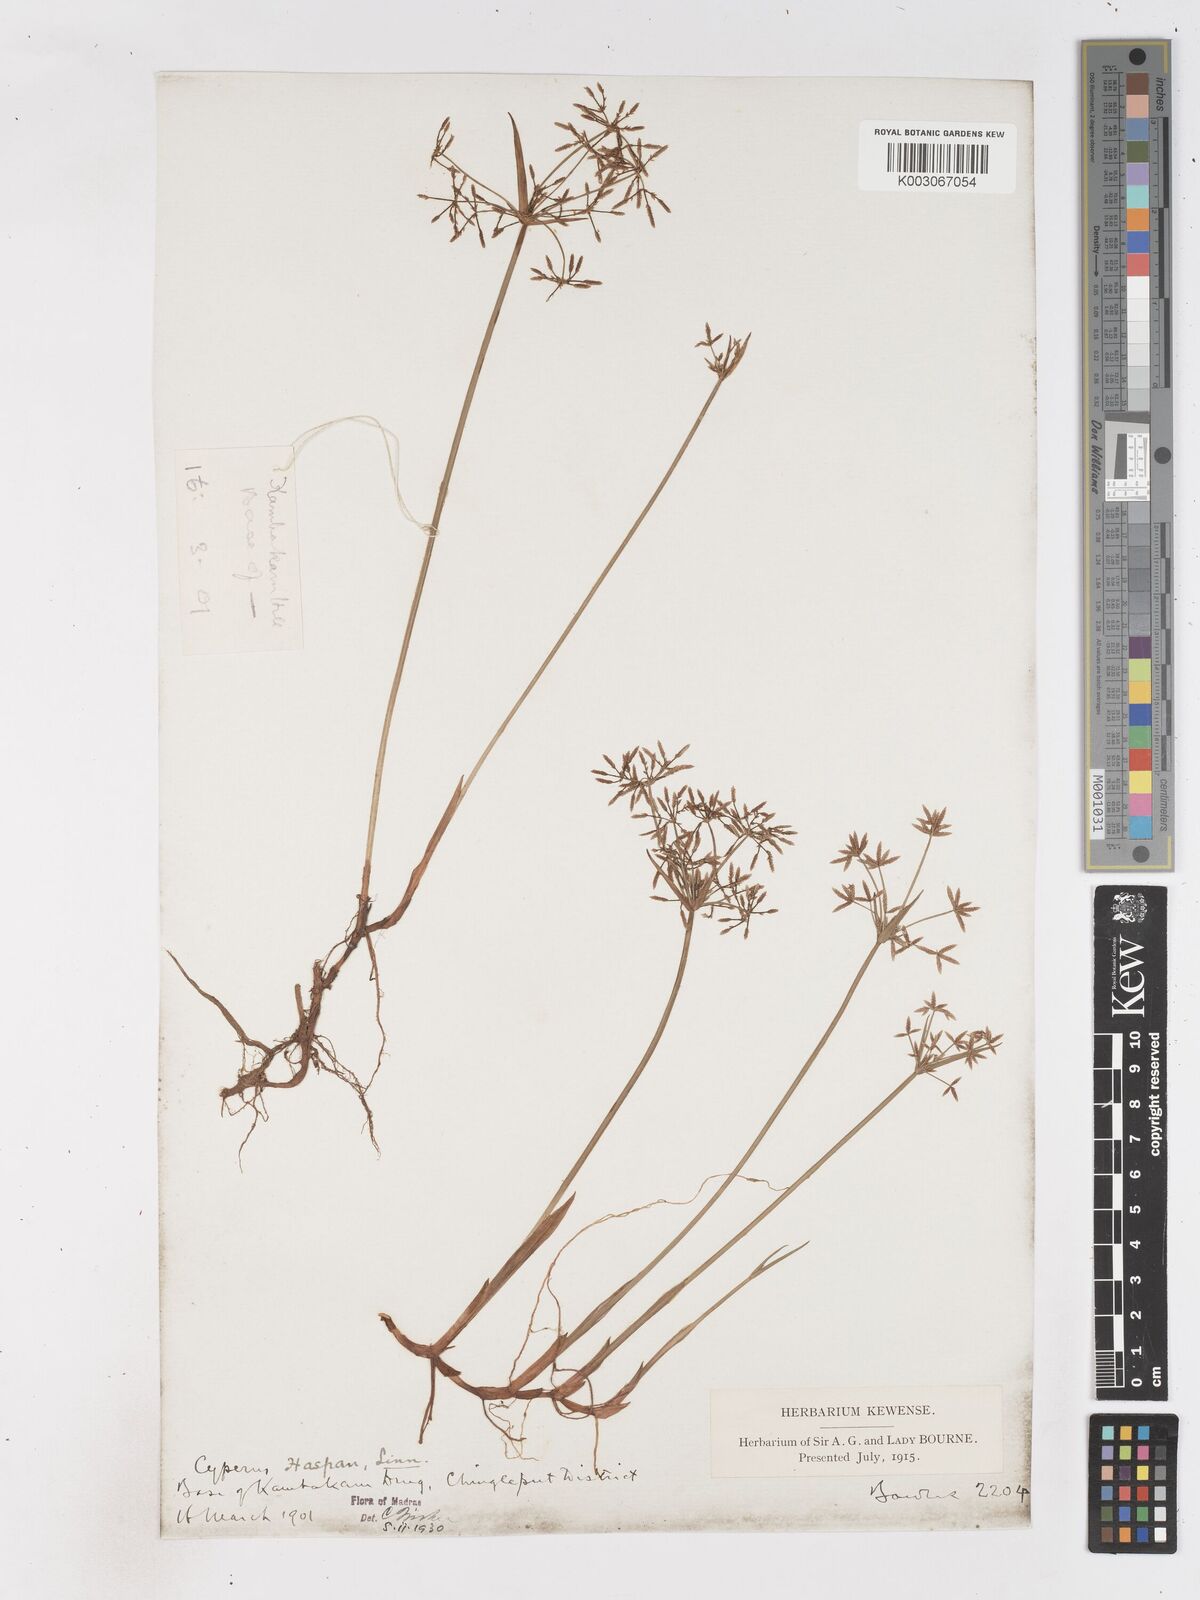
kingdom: Plantae
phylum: Tracheophyta
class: Liliopsida
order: Poales
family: Cyperaceae
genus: Cyperus
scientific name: Cyperus haspan
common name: Haspan flatsedge
